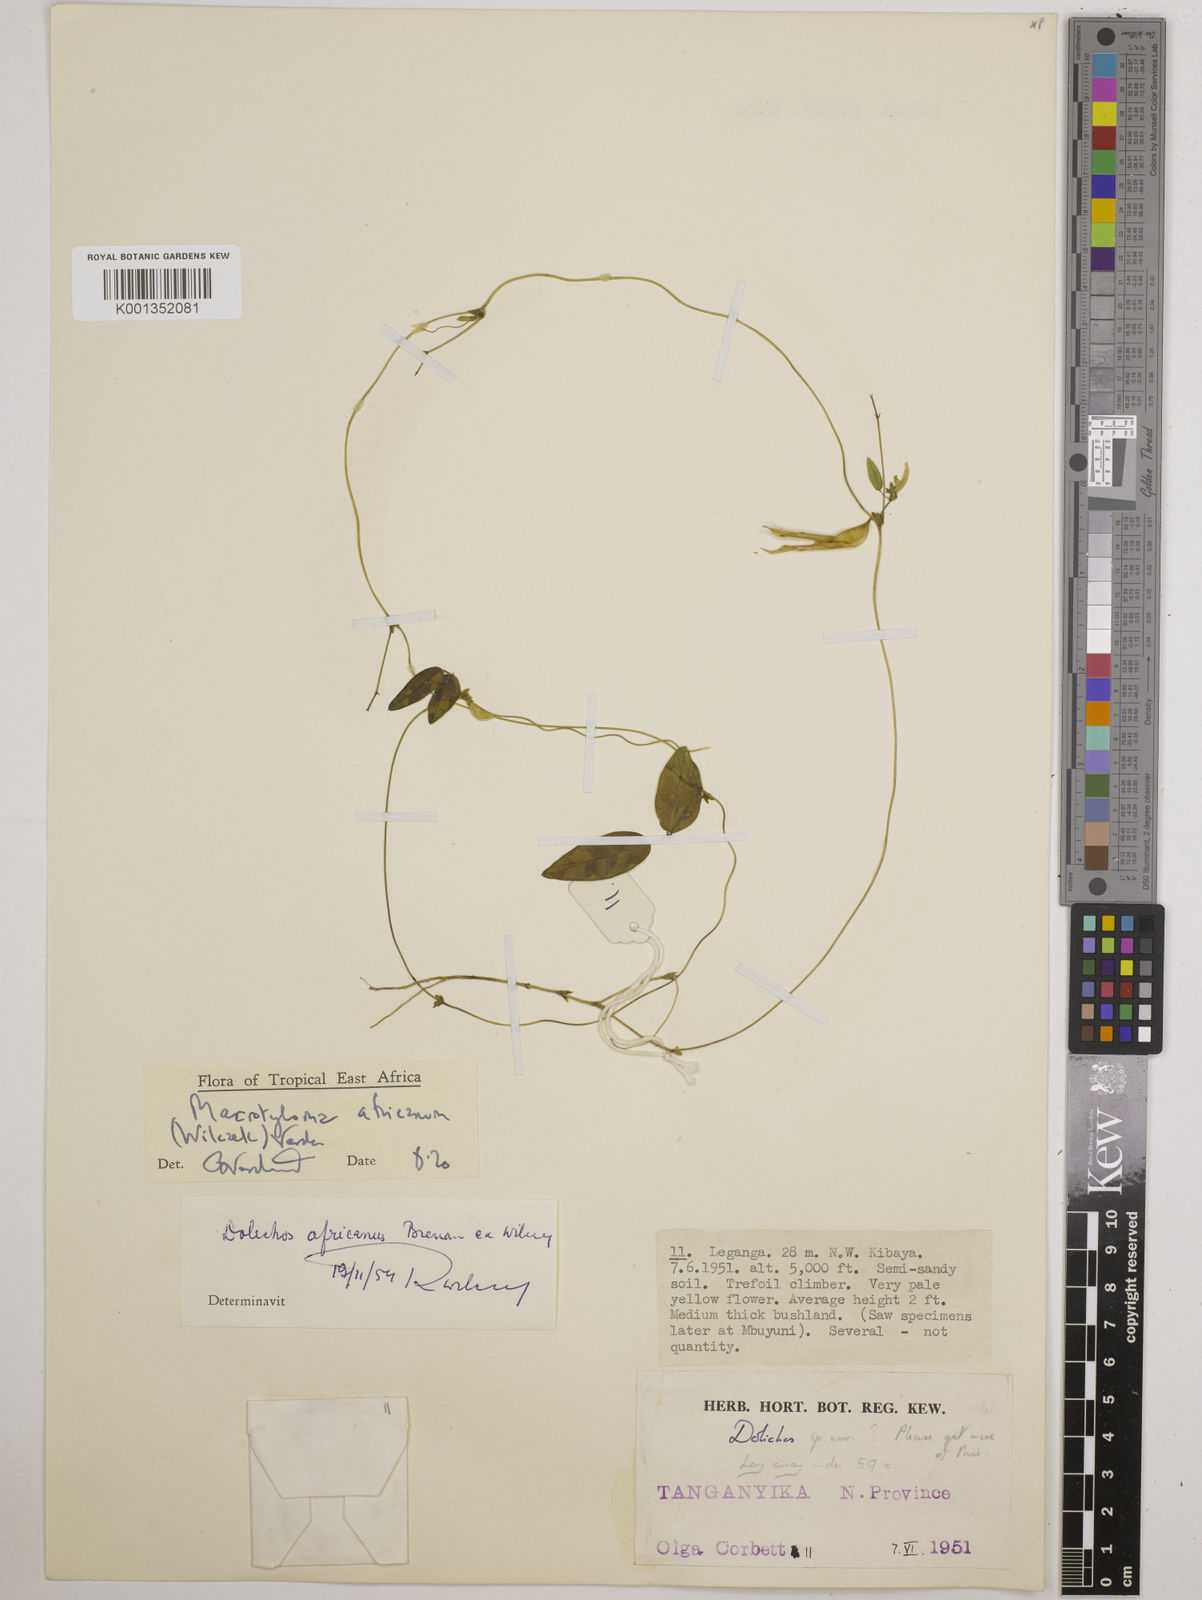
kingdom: Plantae
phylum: Tracheophyta
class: Magnoliopsida
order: Fabales
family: Fabaceae
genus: Macrotyloma
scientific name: Macrotyloma africanum
